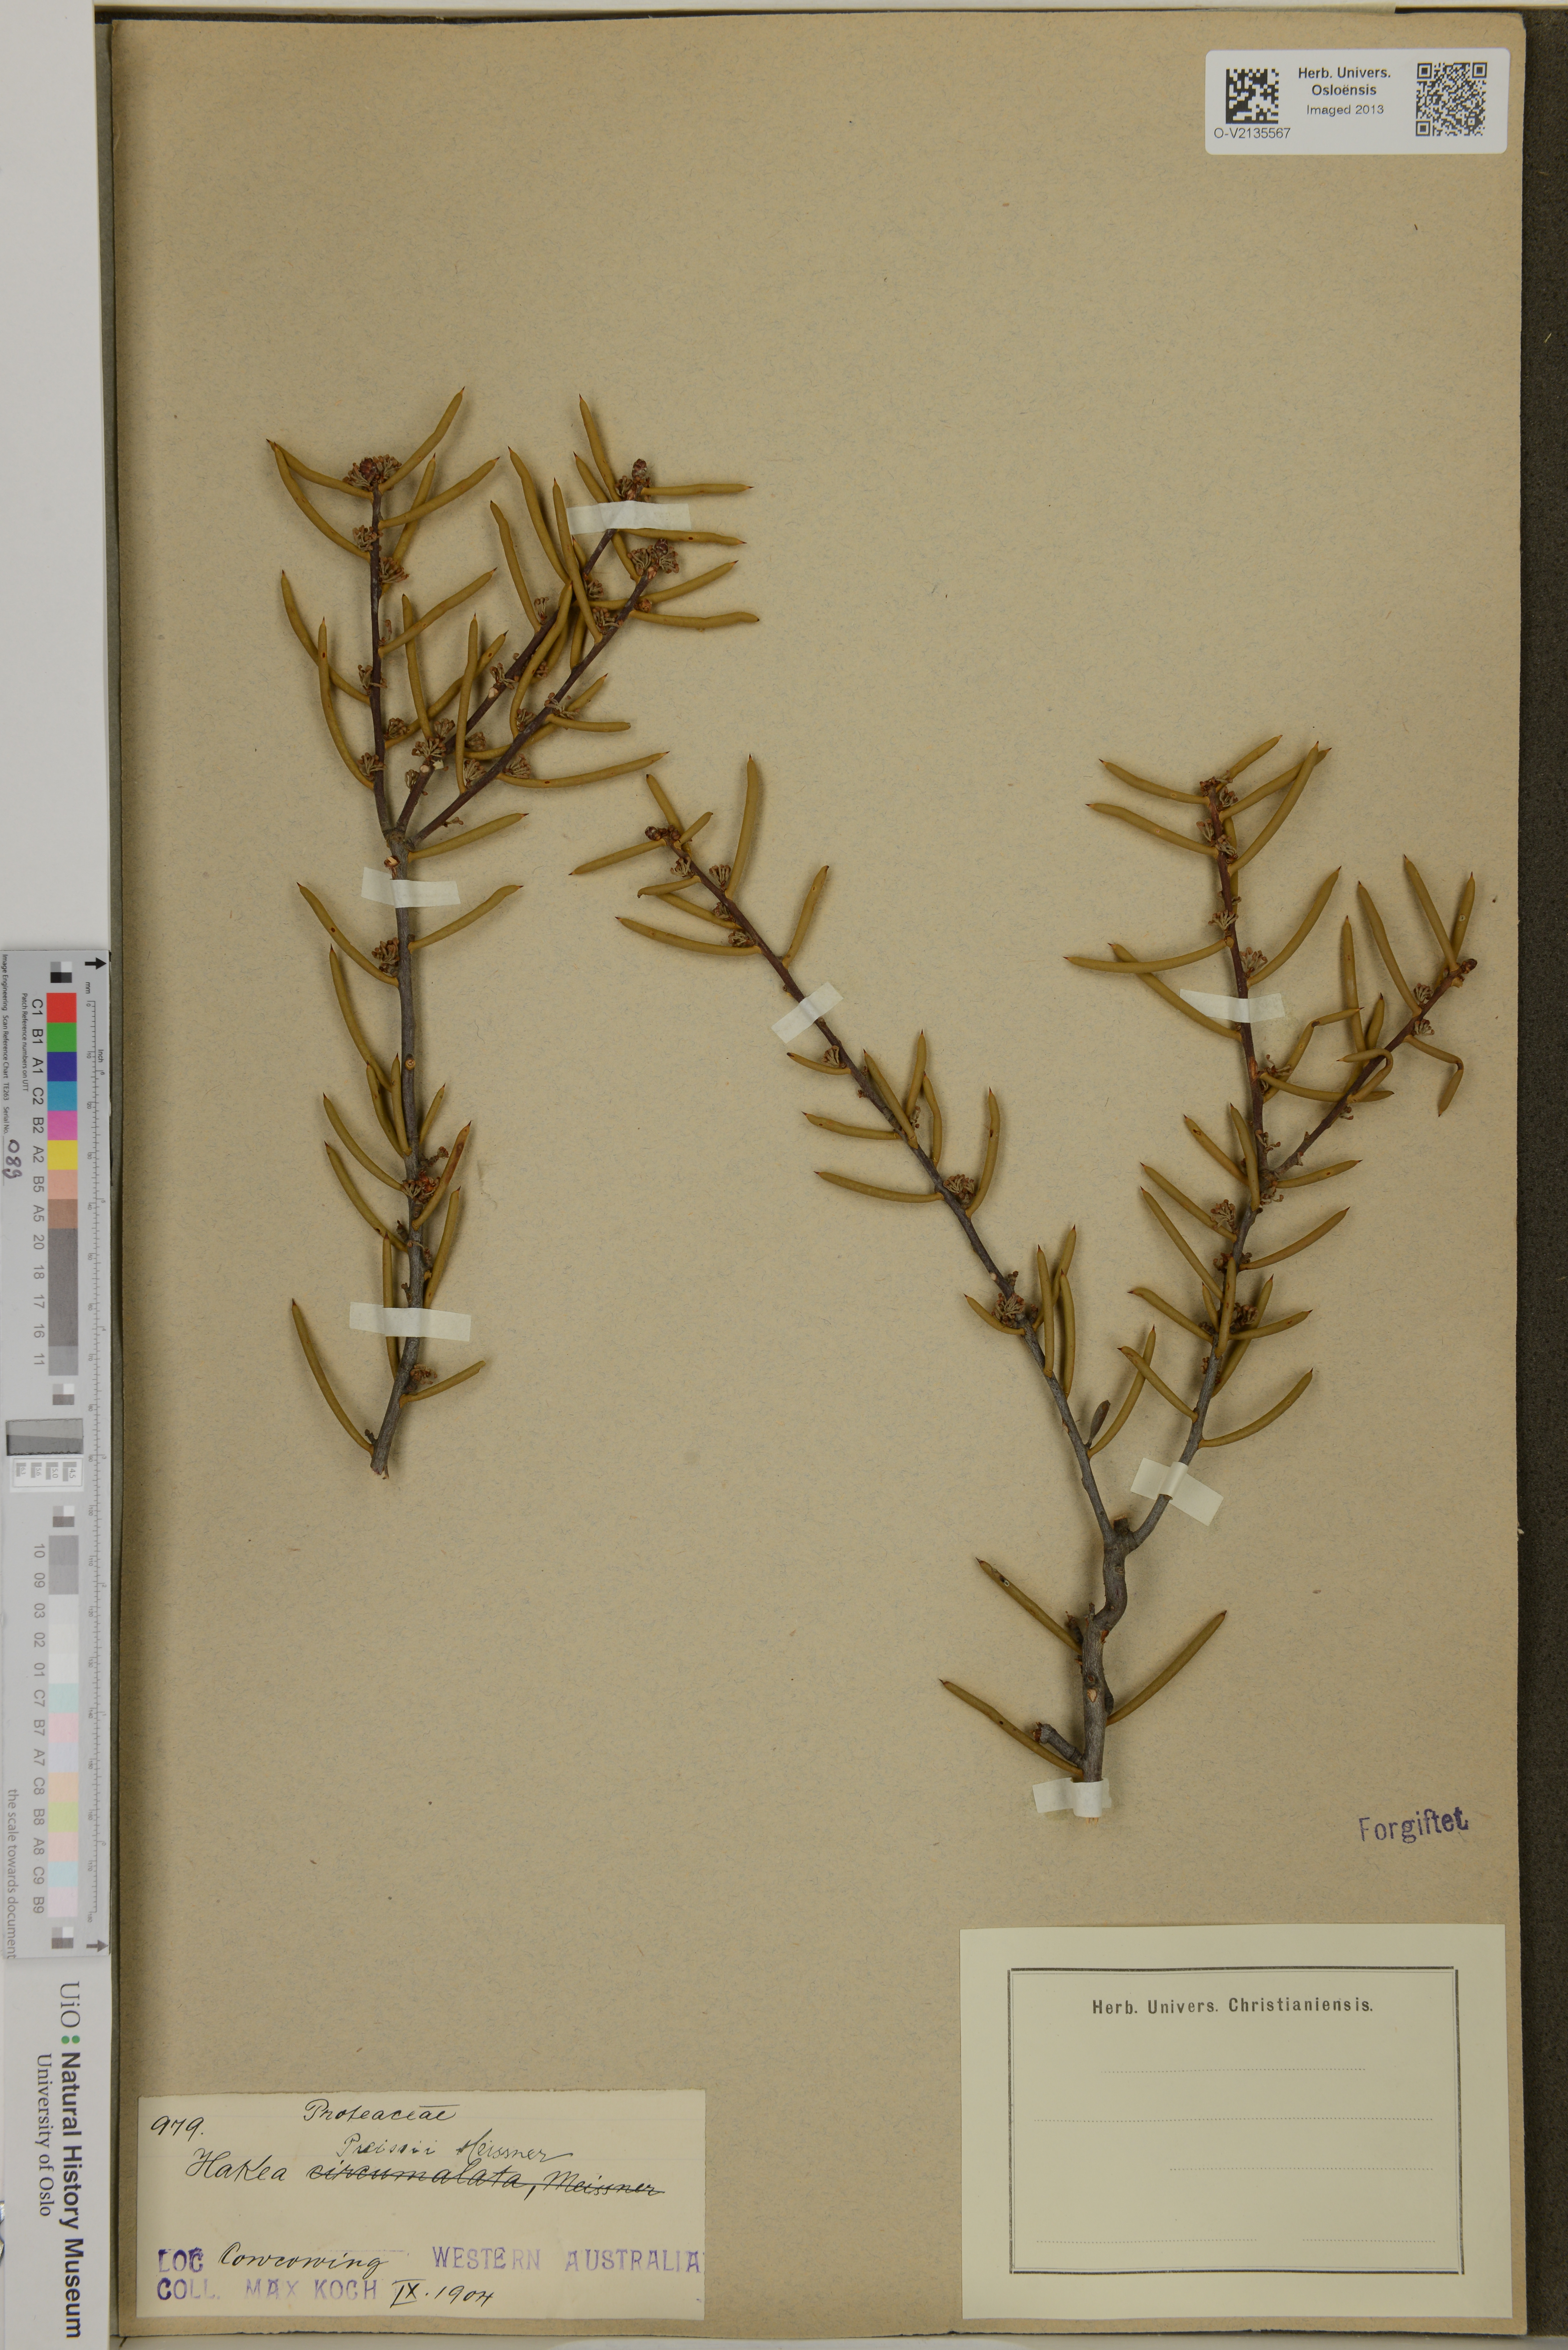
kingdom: Plantae
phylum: Tracheophyta
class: Magnoliopsida
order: Proteales
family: Proteaceae
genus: Hakea
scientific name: Hakea preissii
